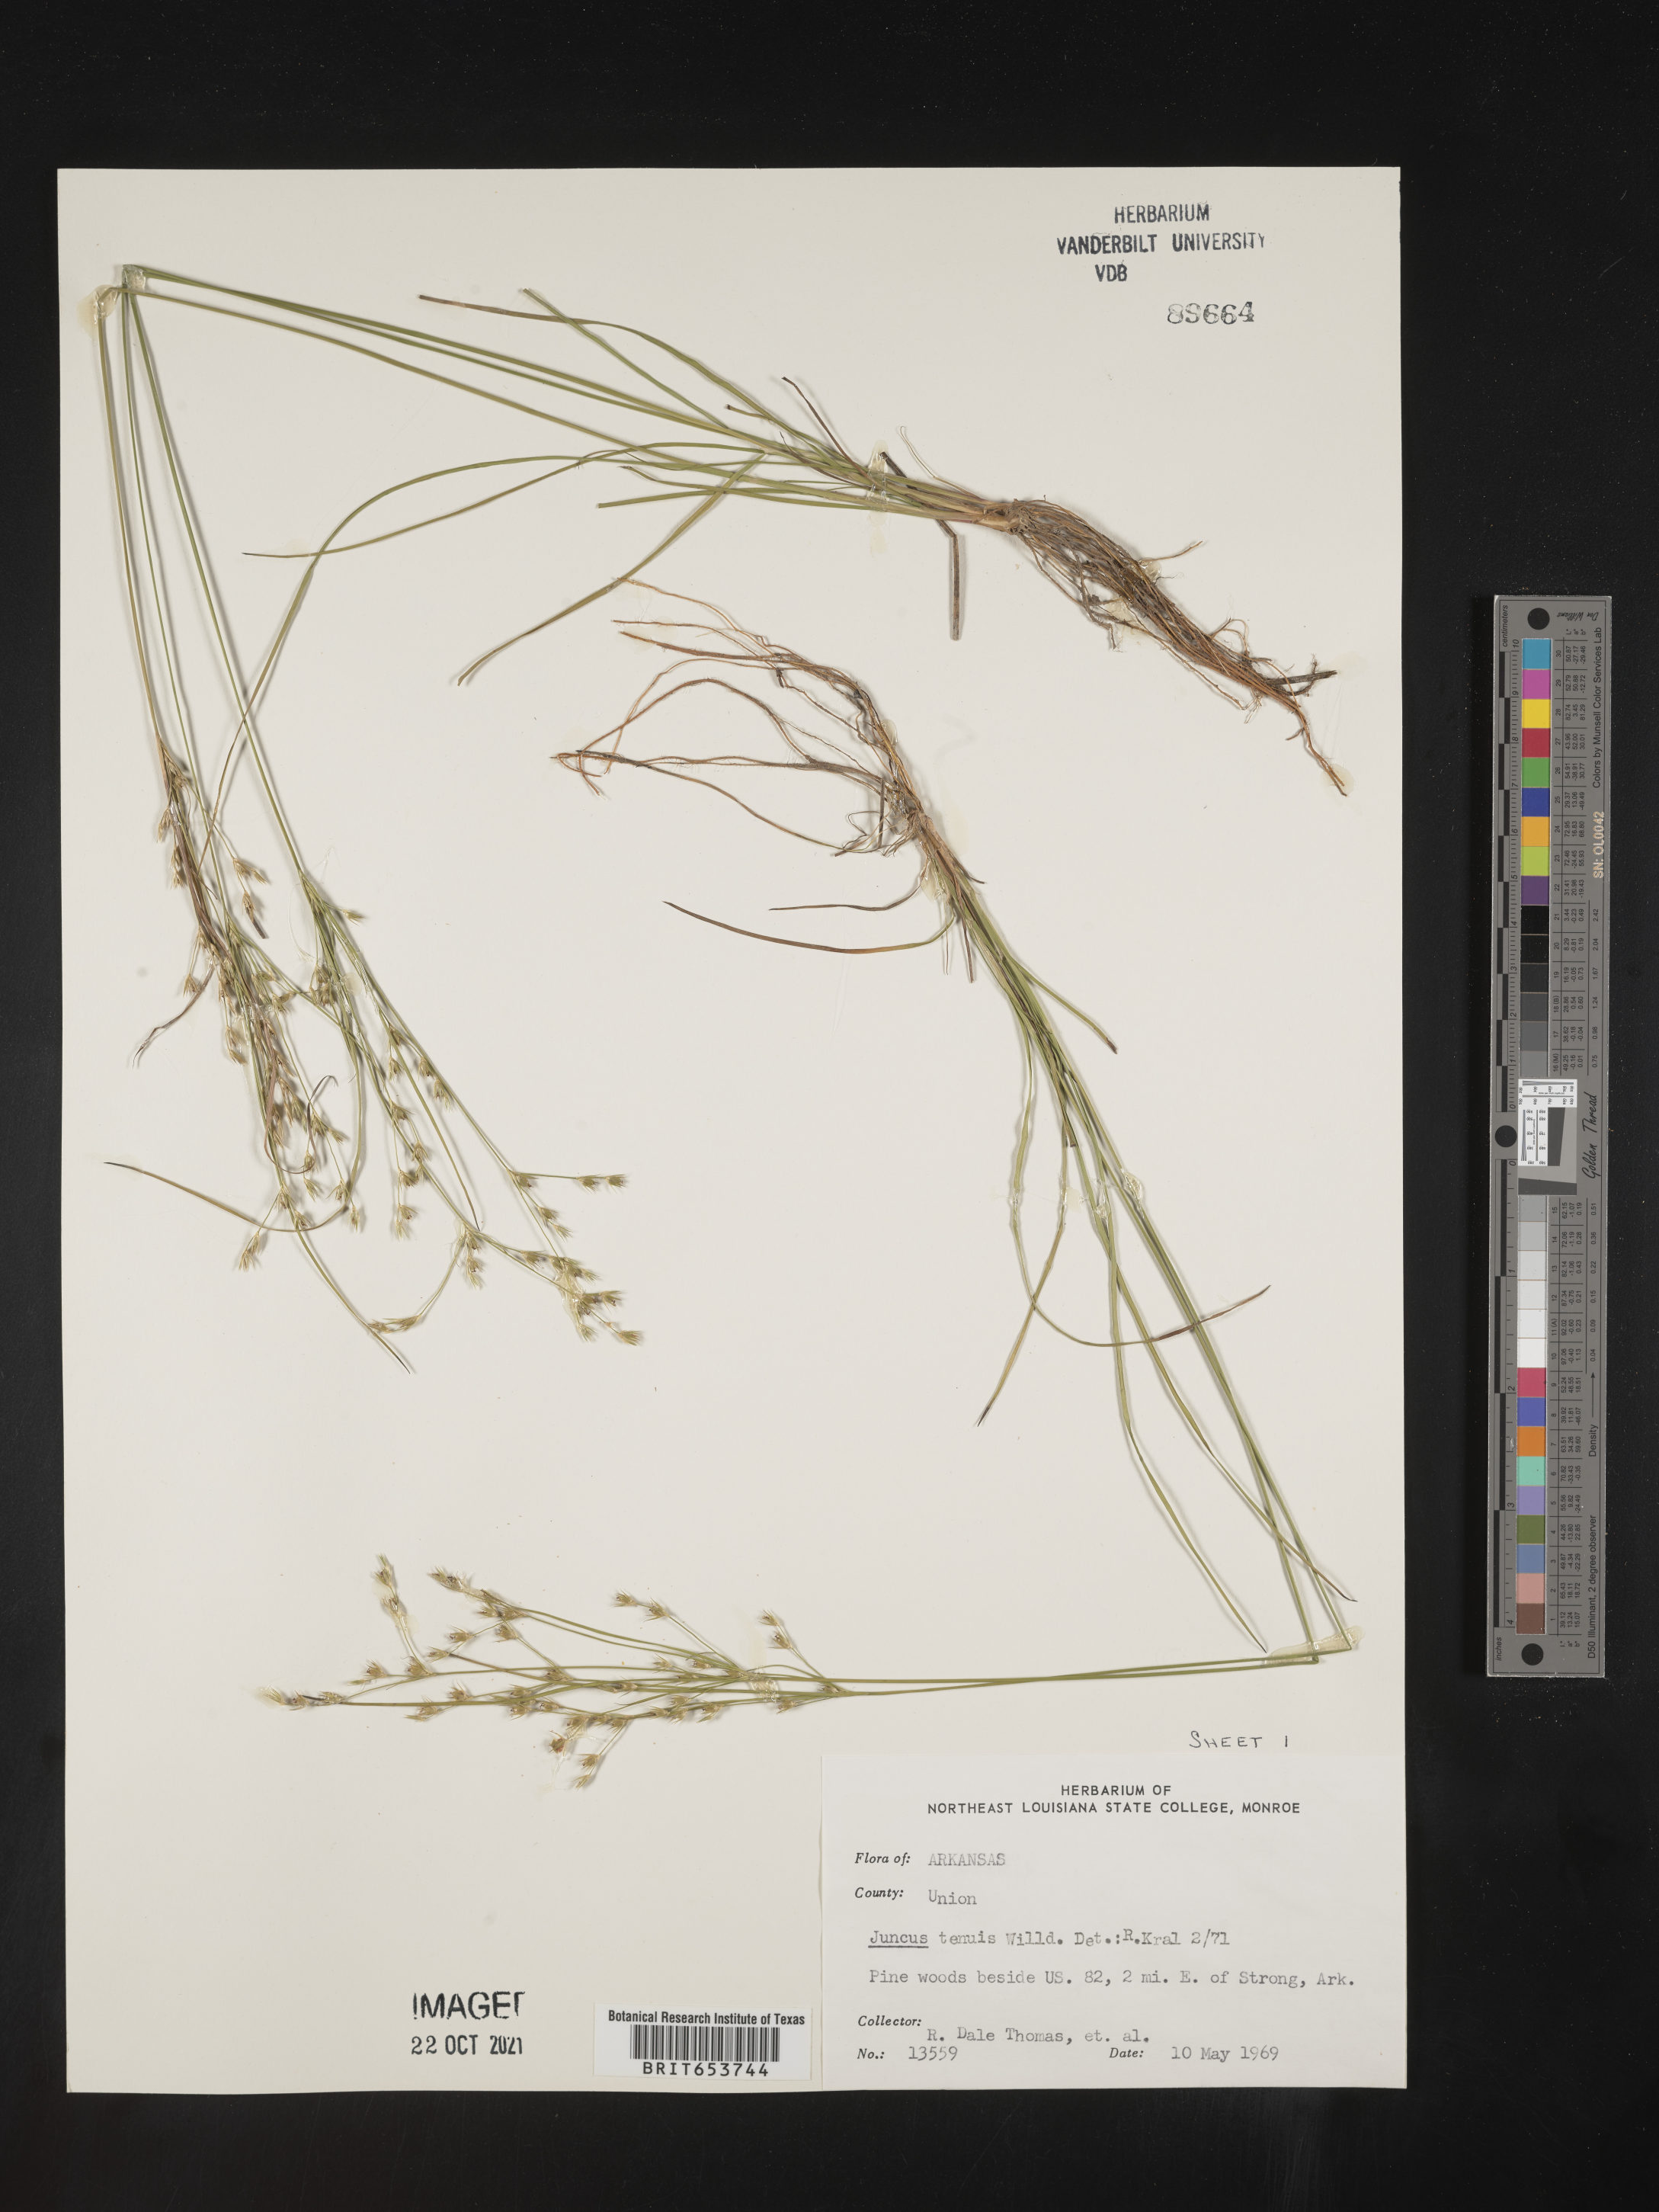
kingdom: Plantae
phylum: Tracheophyta
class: Liliopsida
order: Poales
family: Juncaceae
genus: Juncus
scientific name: Juncus tenuis
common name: Slender rush
